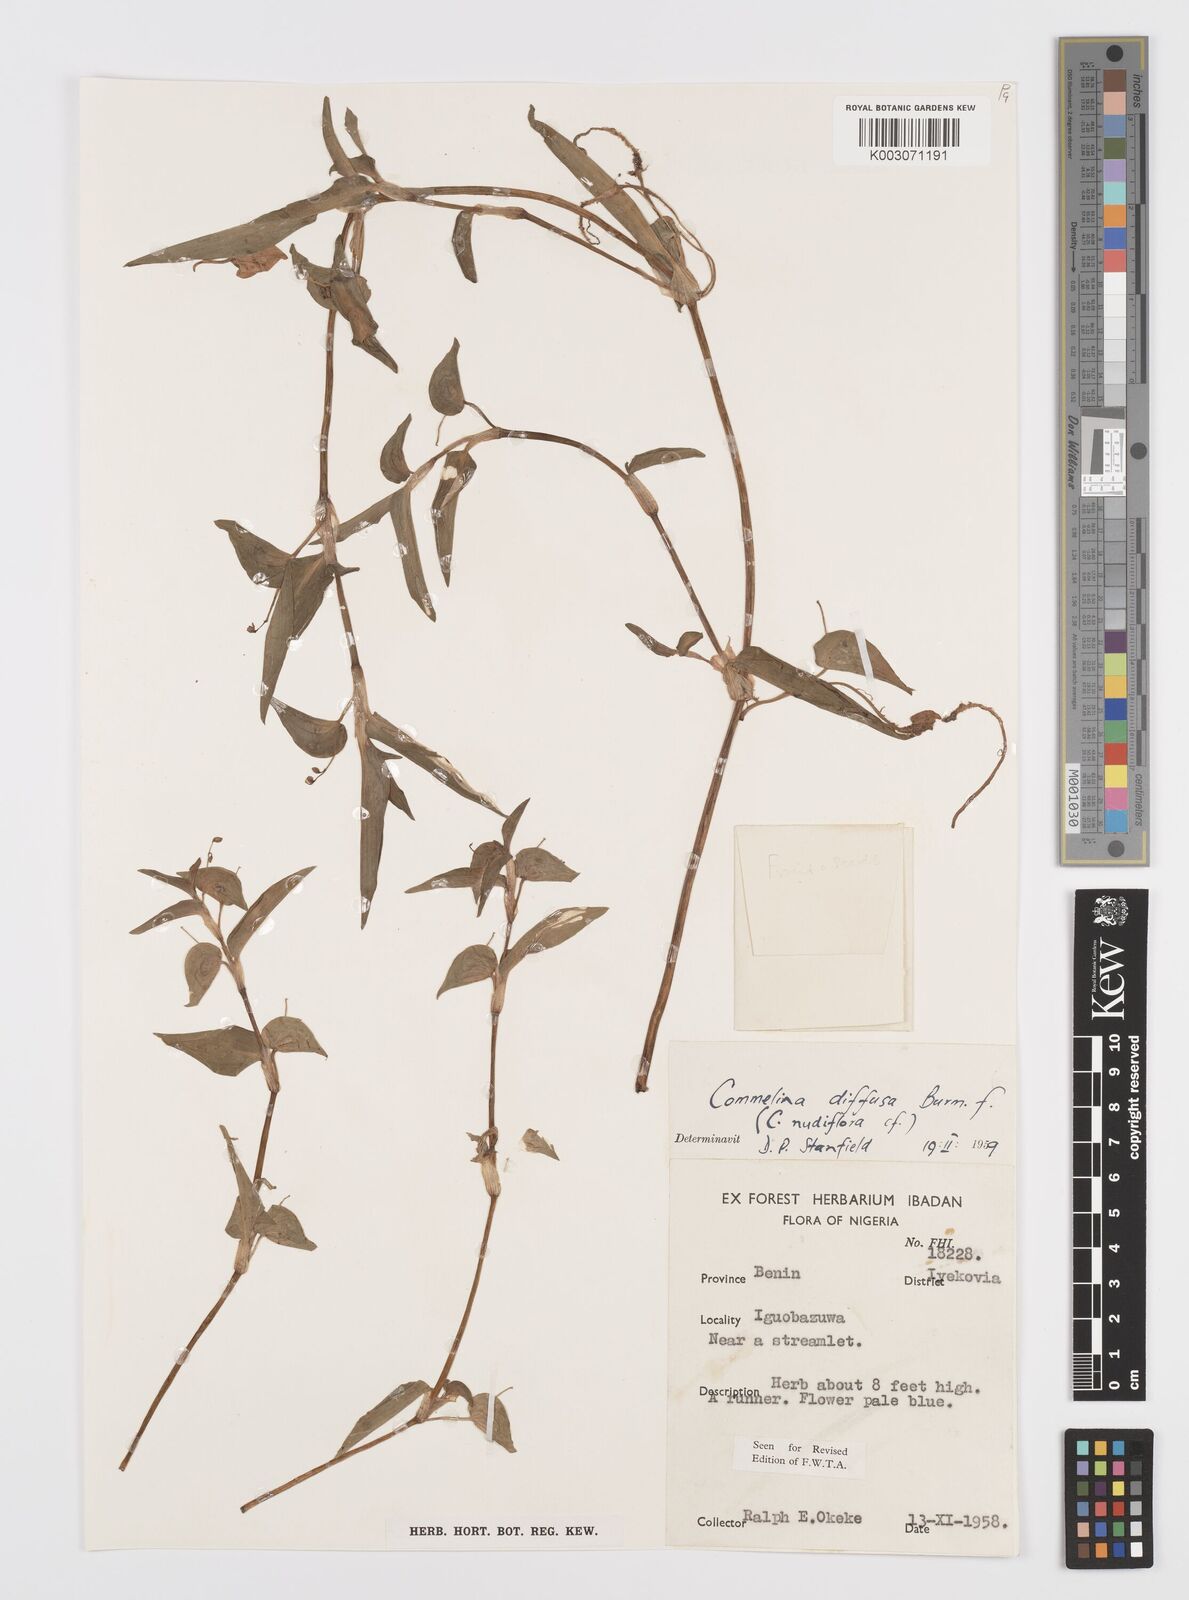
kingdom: Plantae
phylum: Tracheophyta
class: Liliopsida
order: Commelinales
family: Commelinaceae
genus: Commelina
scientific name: Commelina diffusa
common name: Climbing dayflower
